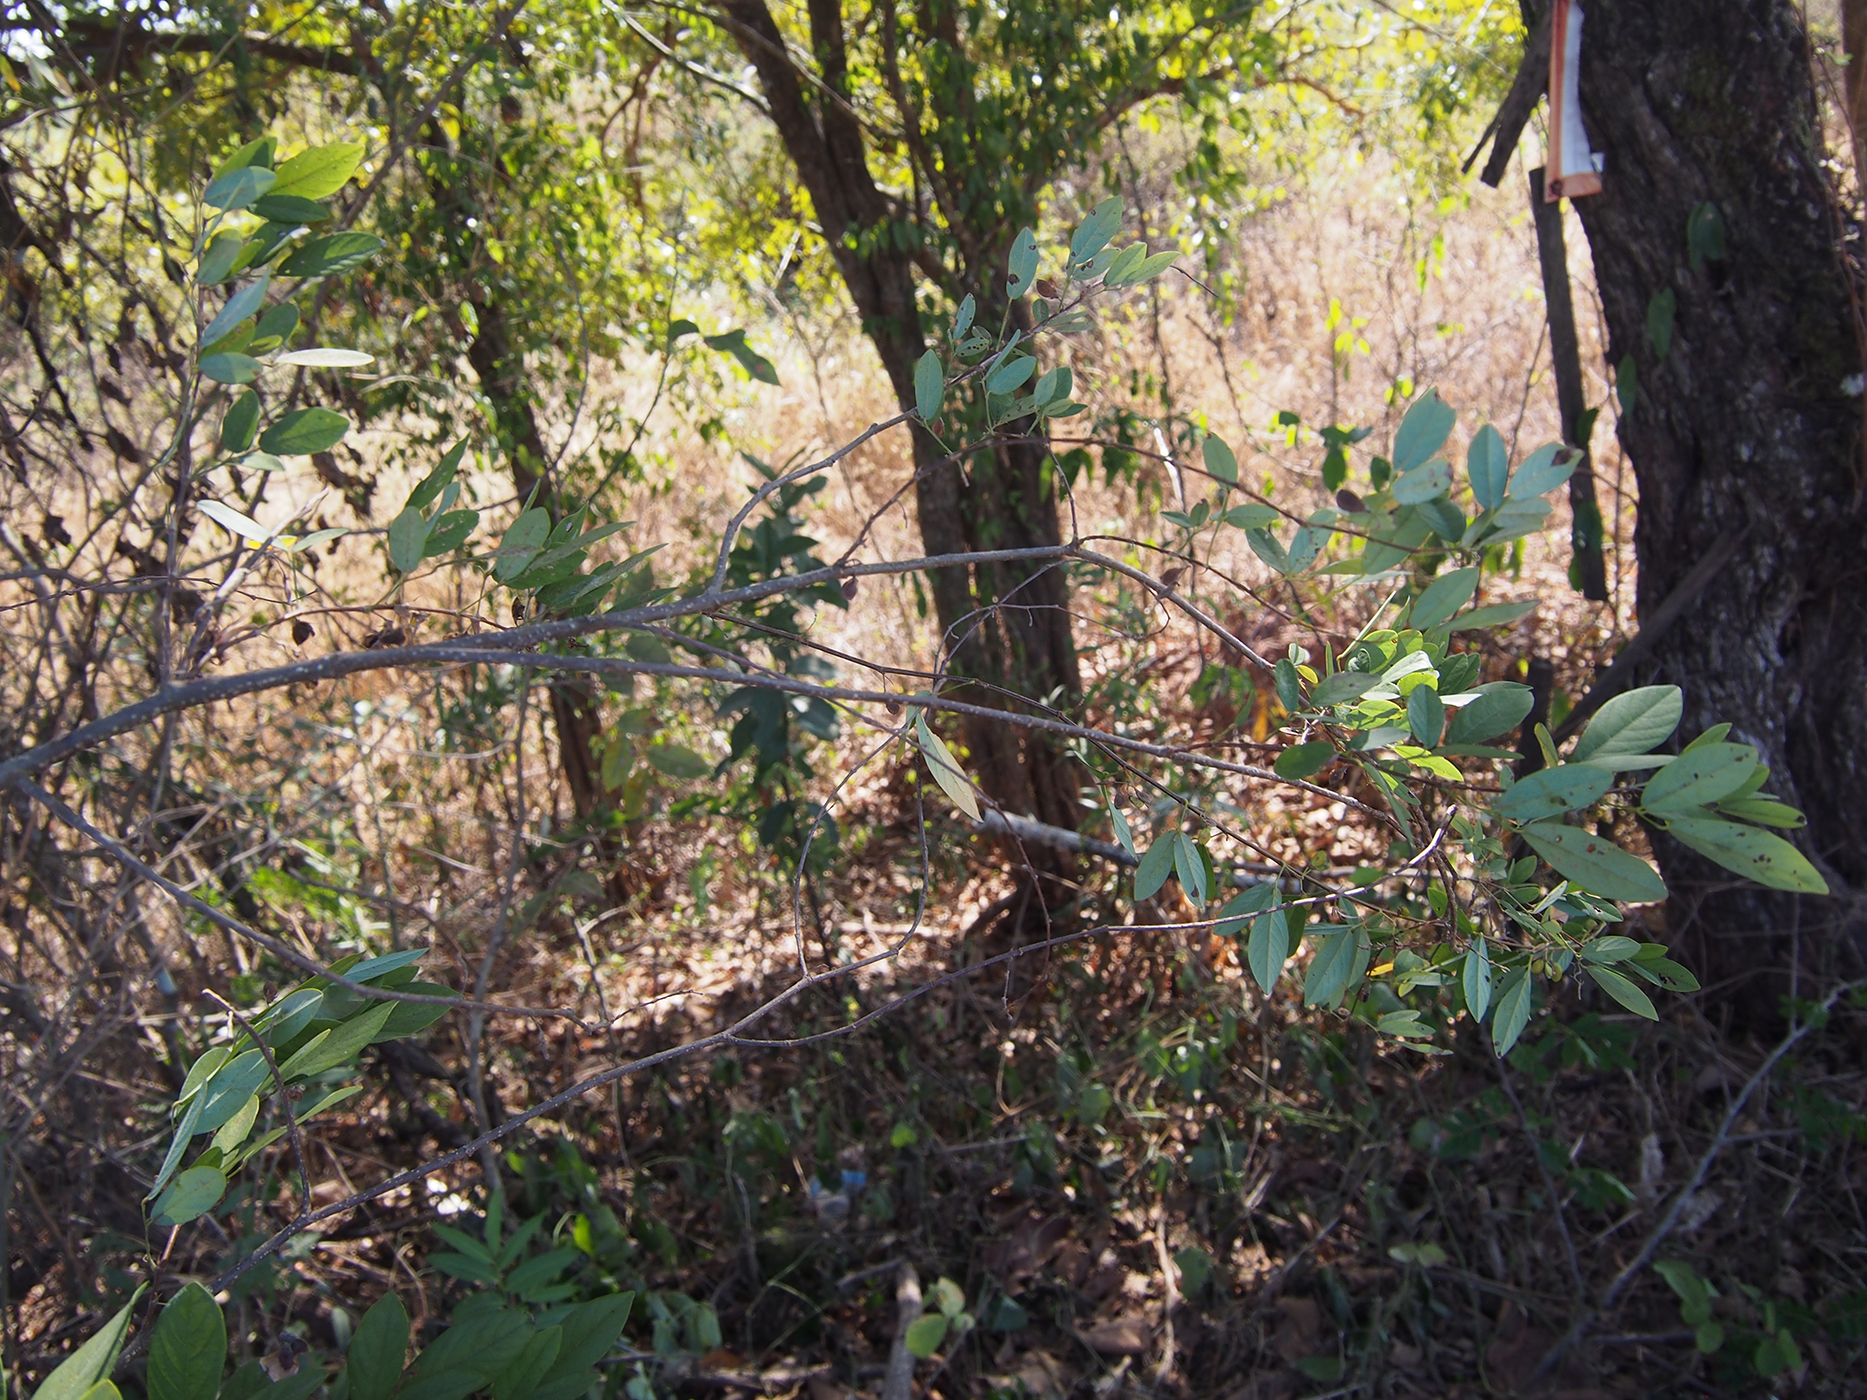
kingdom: Plantae
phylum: Tracheophyta
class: Magnoliopsida
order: Fabales
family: Fabaceae
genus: Dendrolobium
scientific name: Dendrolobium lanceolatum
